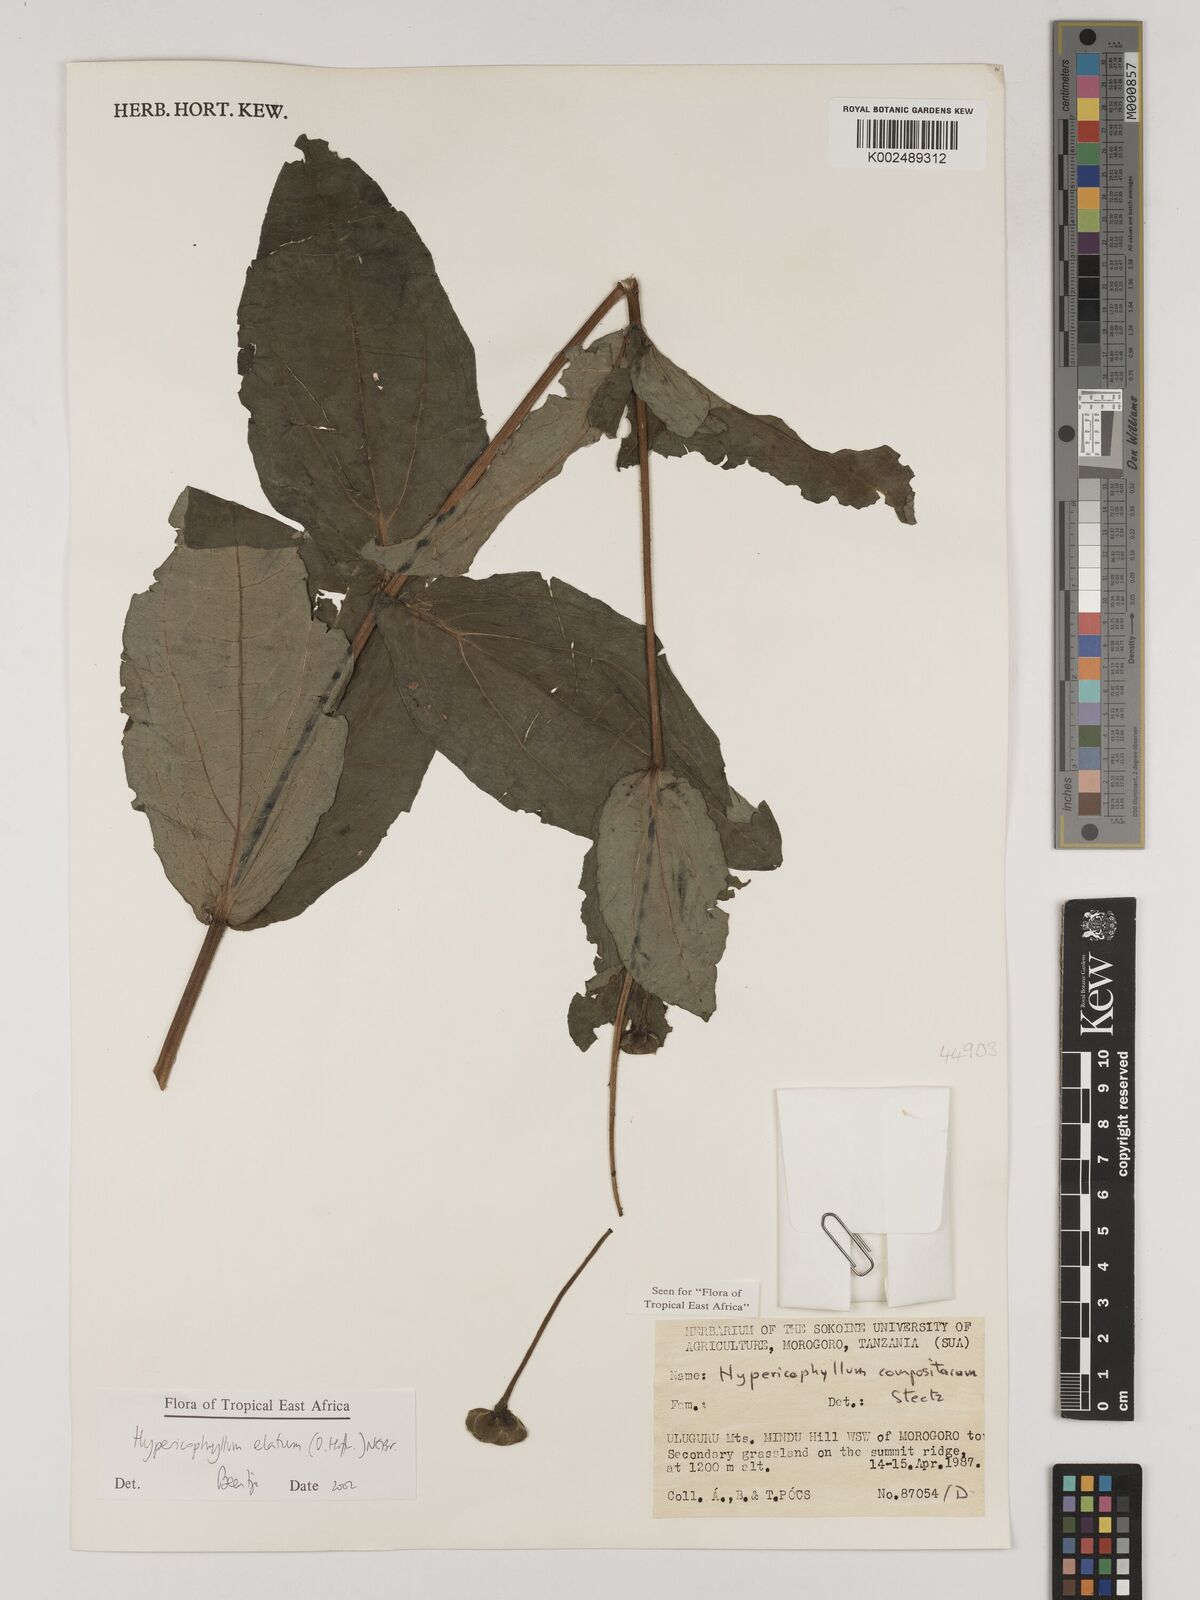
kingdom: Plantae
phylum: Tracheophyta
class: Magnoliopsida
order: Asterales
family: Asteraceae
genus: Hypericophyllum
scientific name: Hypericophyllum elatum
